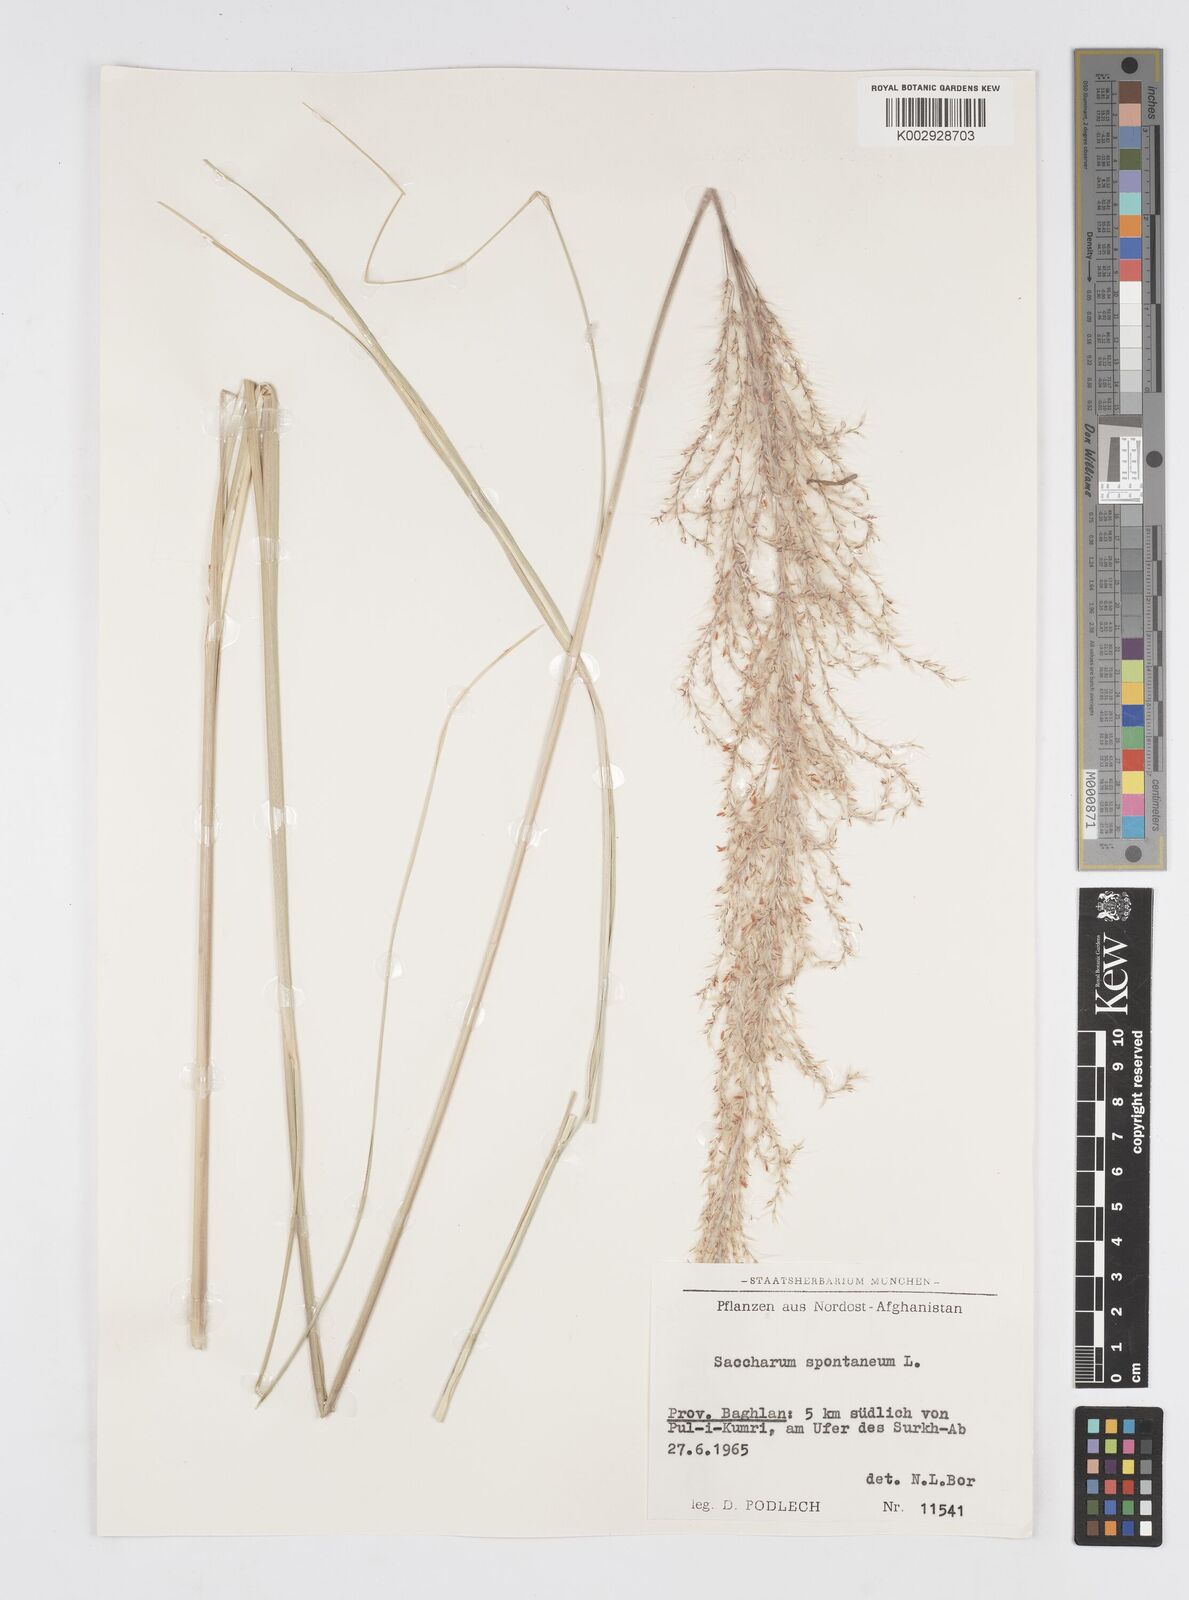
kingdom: Plantae
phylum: Tracheophyta
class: Liliopsida
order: Poales
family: Poaceae
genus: Saccharum
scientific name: Saccharum spontaneum
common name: Wild sugarcane
